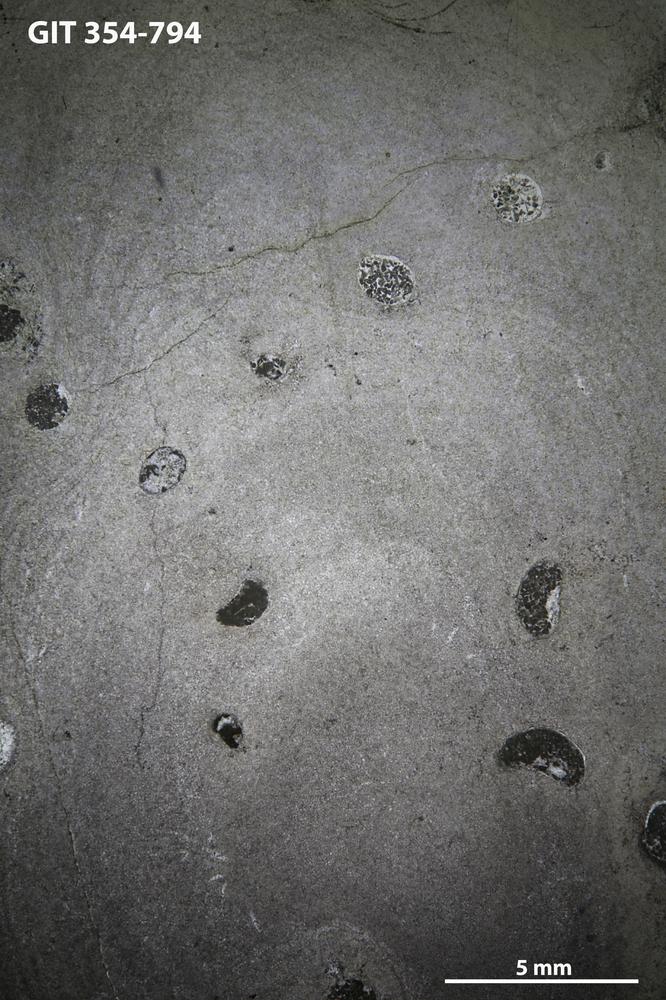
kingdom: Animalia
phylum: Porifera
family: Densastromatidae
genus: Araneosustroma
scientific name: Araneosustroma
